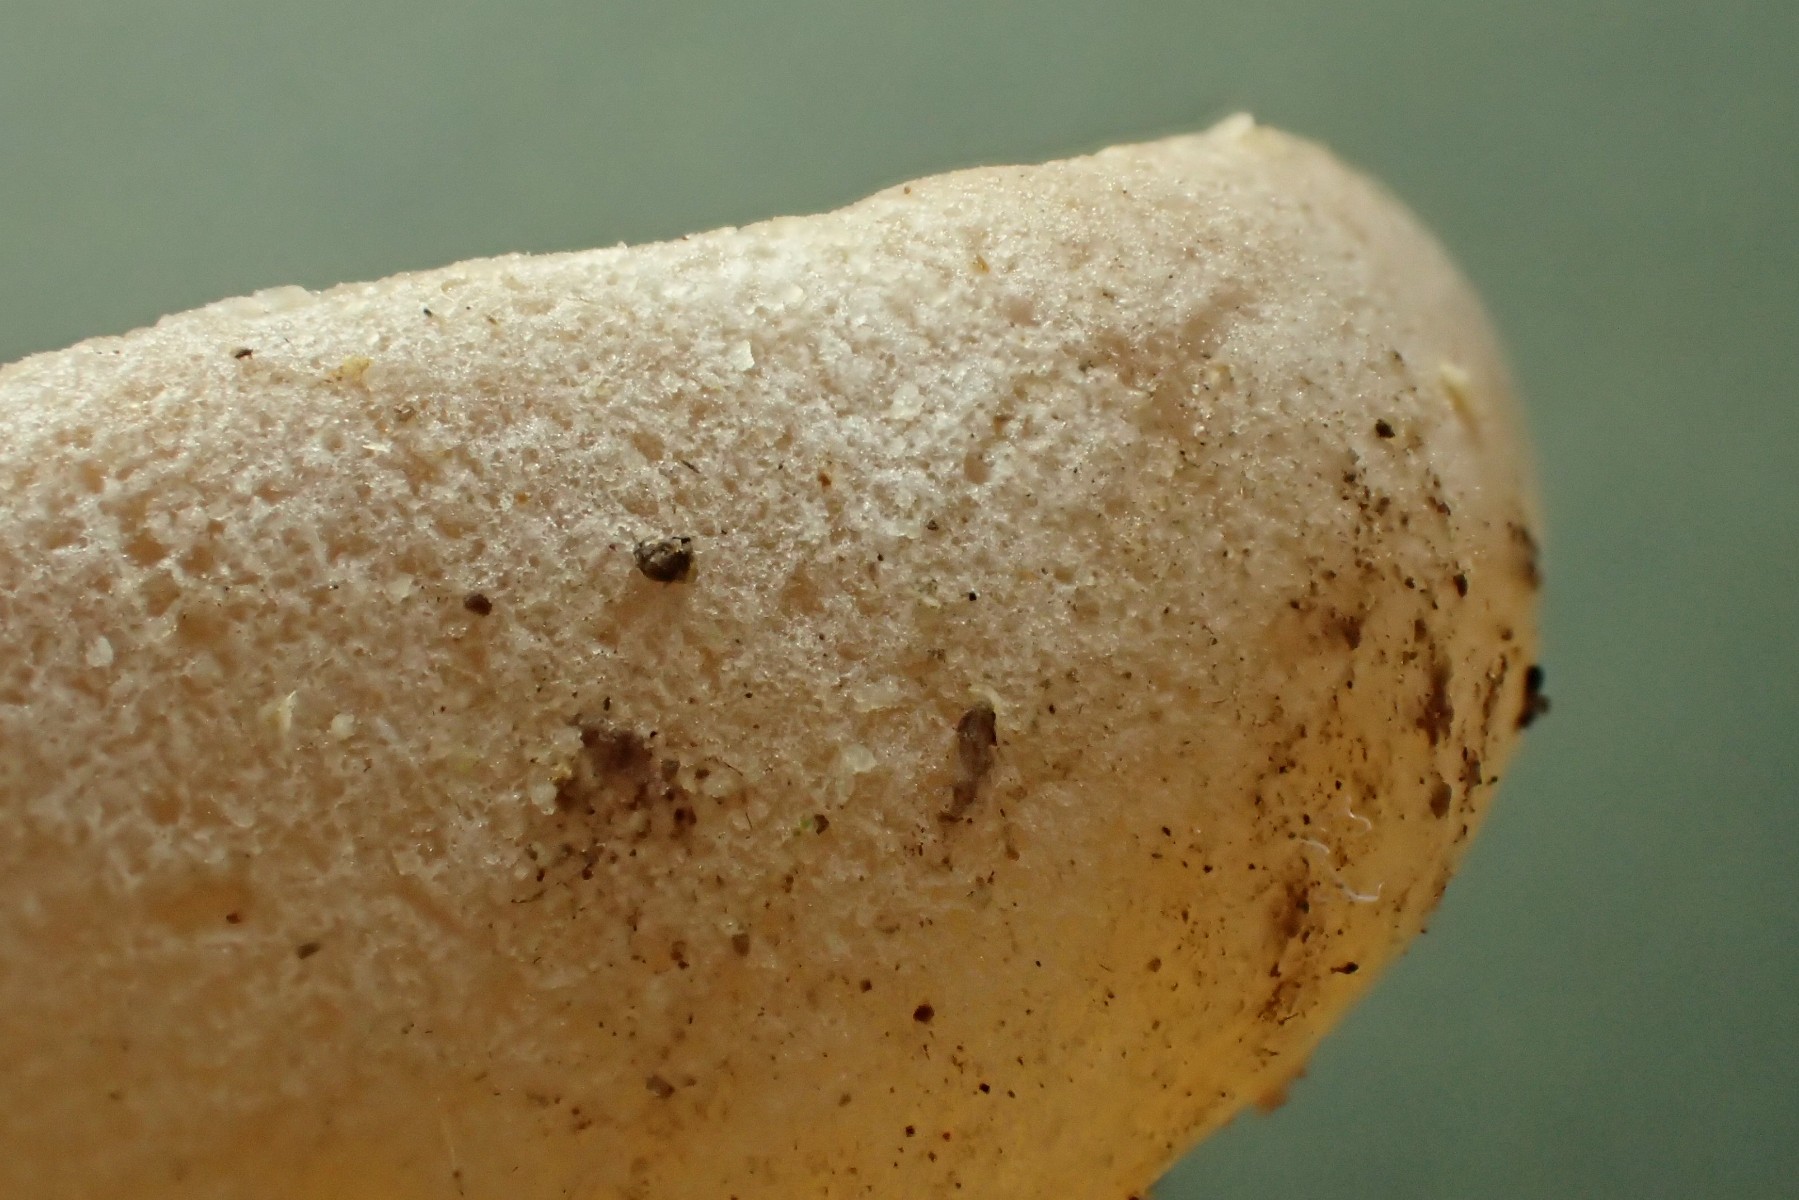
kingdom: Fungi
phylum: Ascomycota
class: Pezizomycetes
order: Pezizales
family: Pezizaceae
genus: Peziza
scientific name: Peziza varia
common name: Ved-bægersvamp
